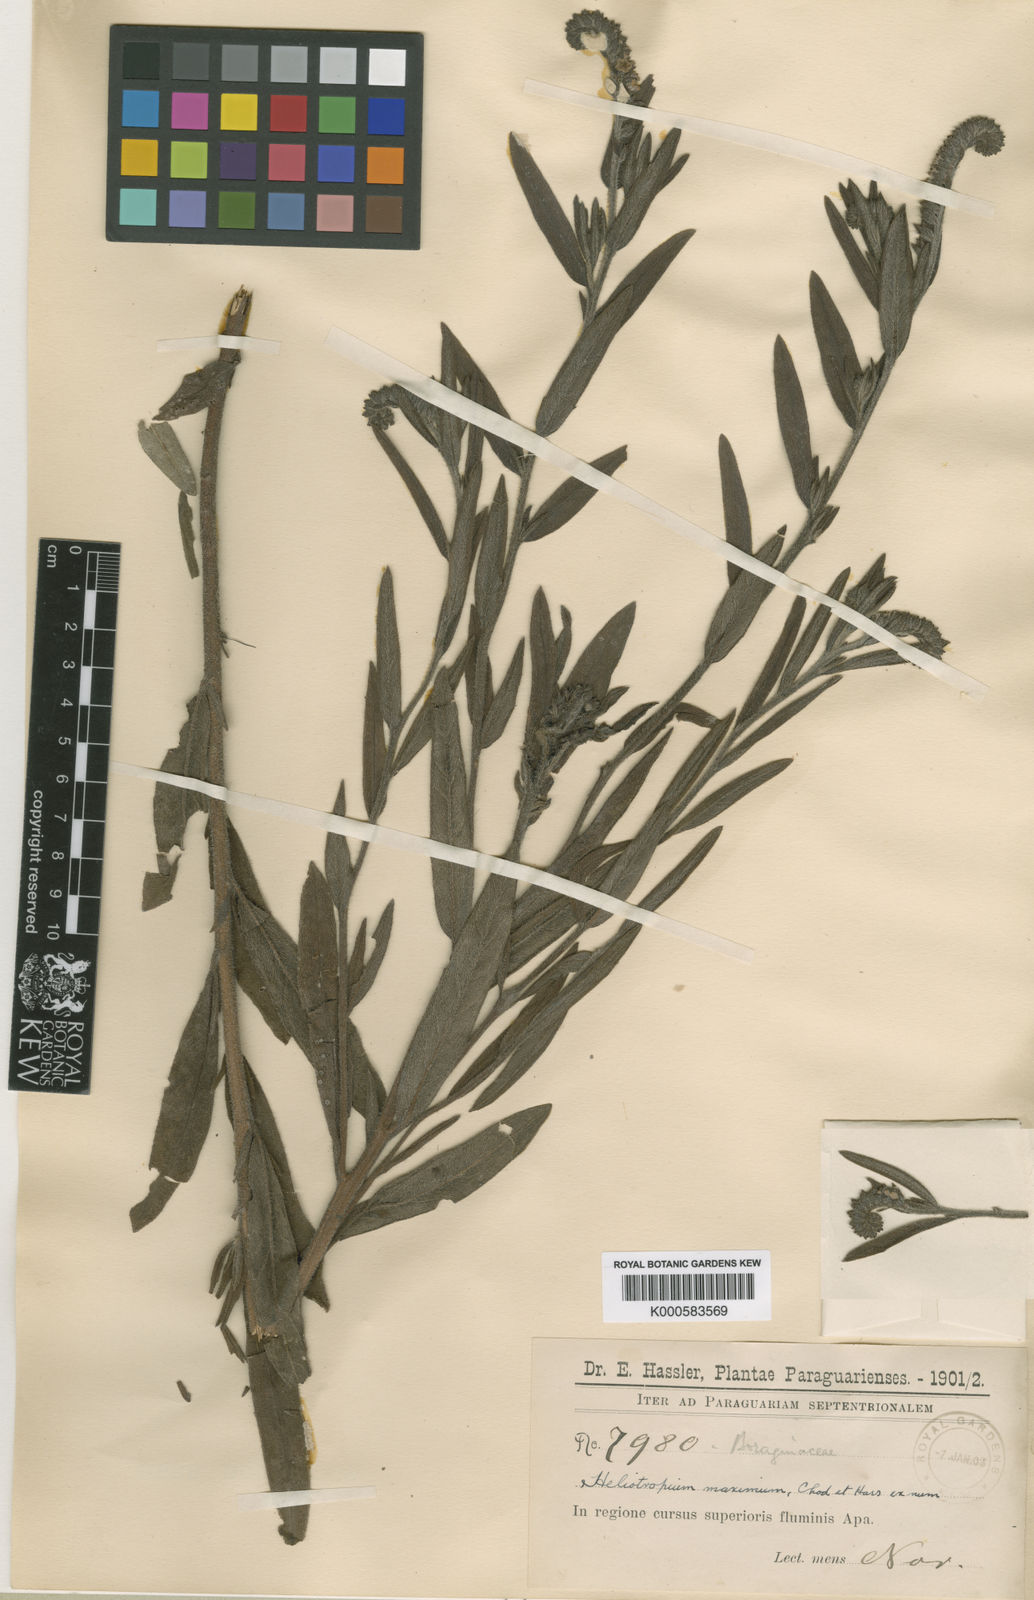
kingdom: Plantae
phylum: Tracheophyta
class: Magnoliopsida
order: Boraginales
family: Heliotropiaceae
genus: Heliotropium
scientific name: Heliotropium
